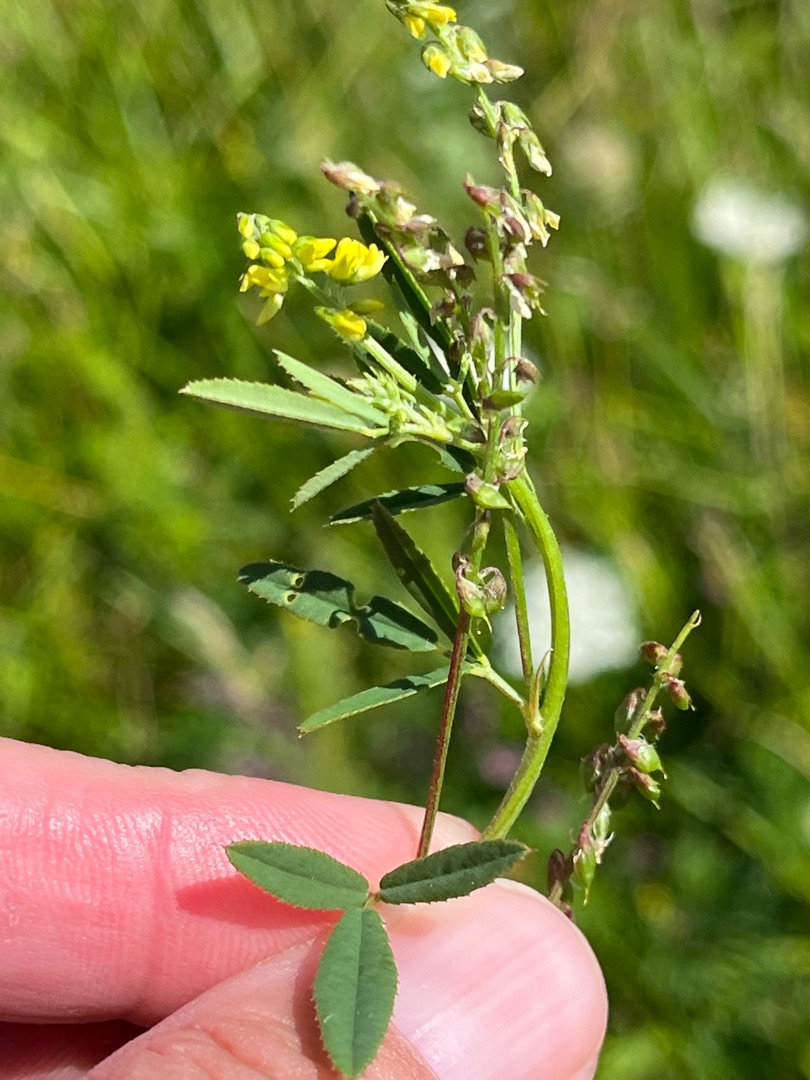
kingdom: Plantae
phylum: Tracheophyta
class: Magnoliopsida
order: Fabales
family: Fabaceae
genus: Melilotus
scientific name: Melilotus dentatus
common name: Strand-stenkløver
